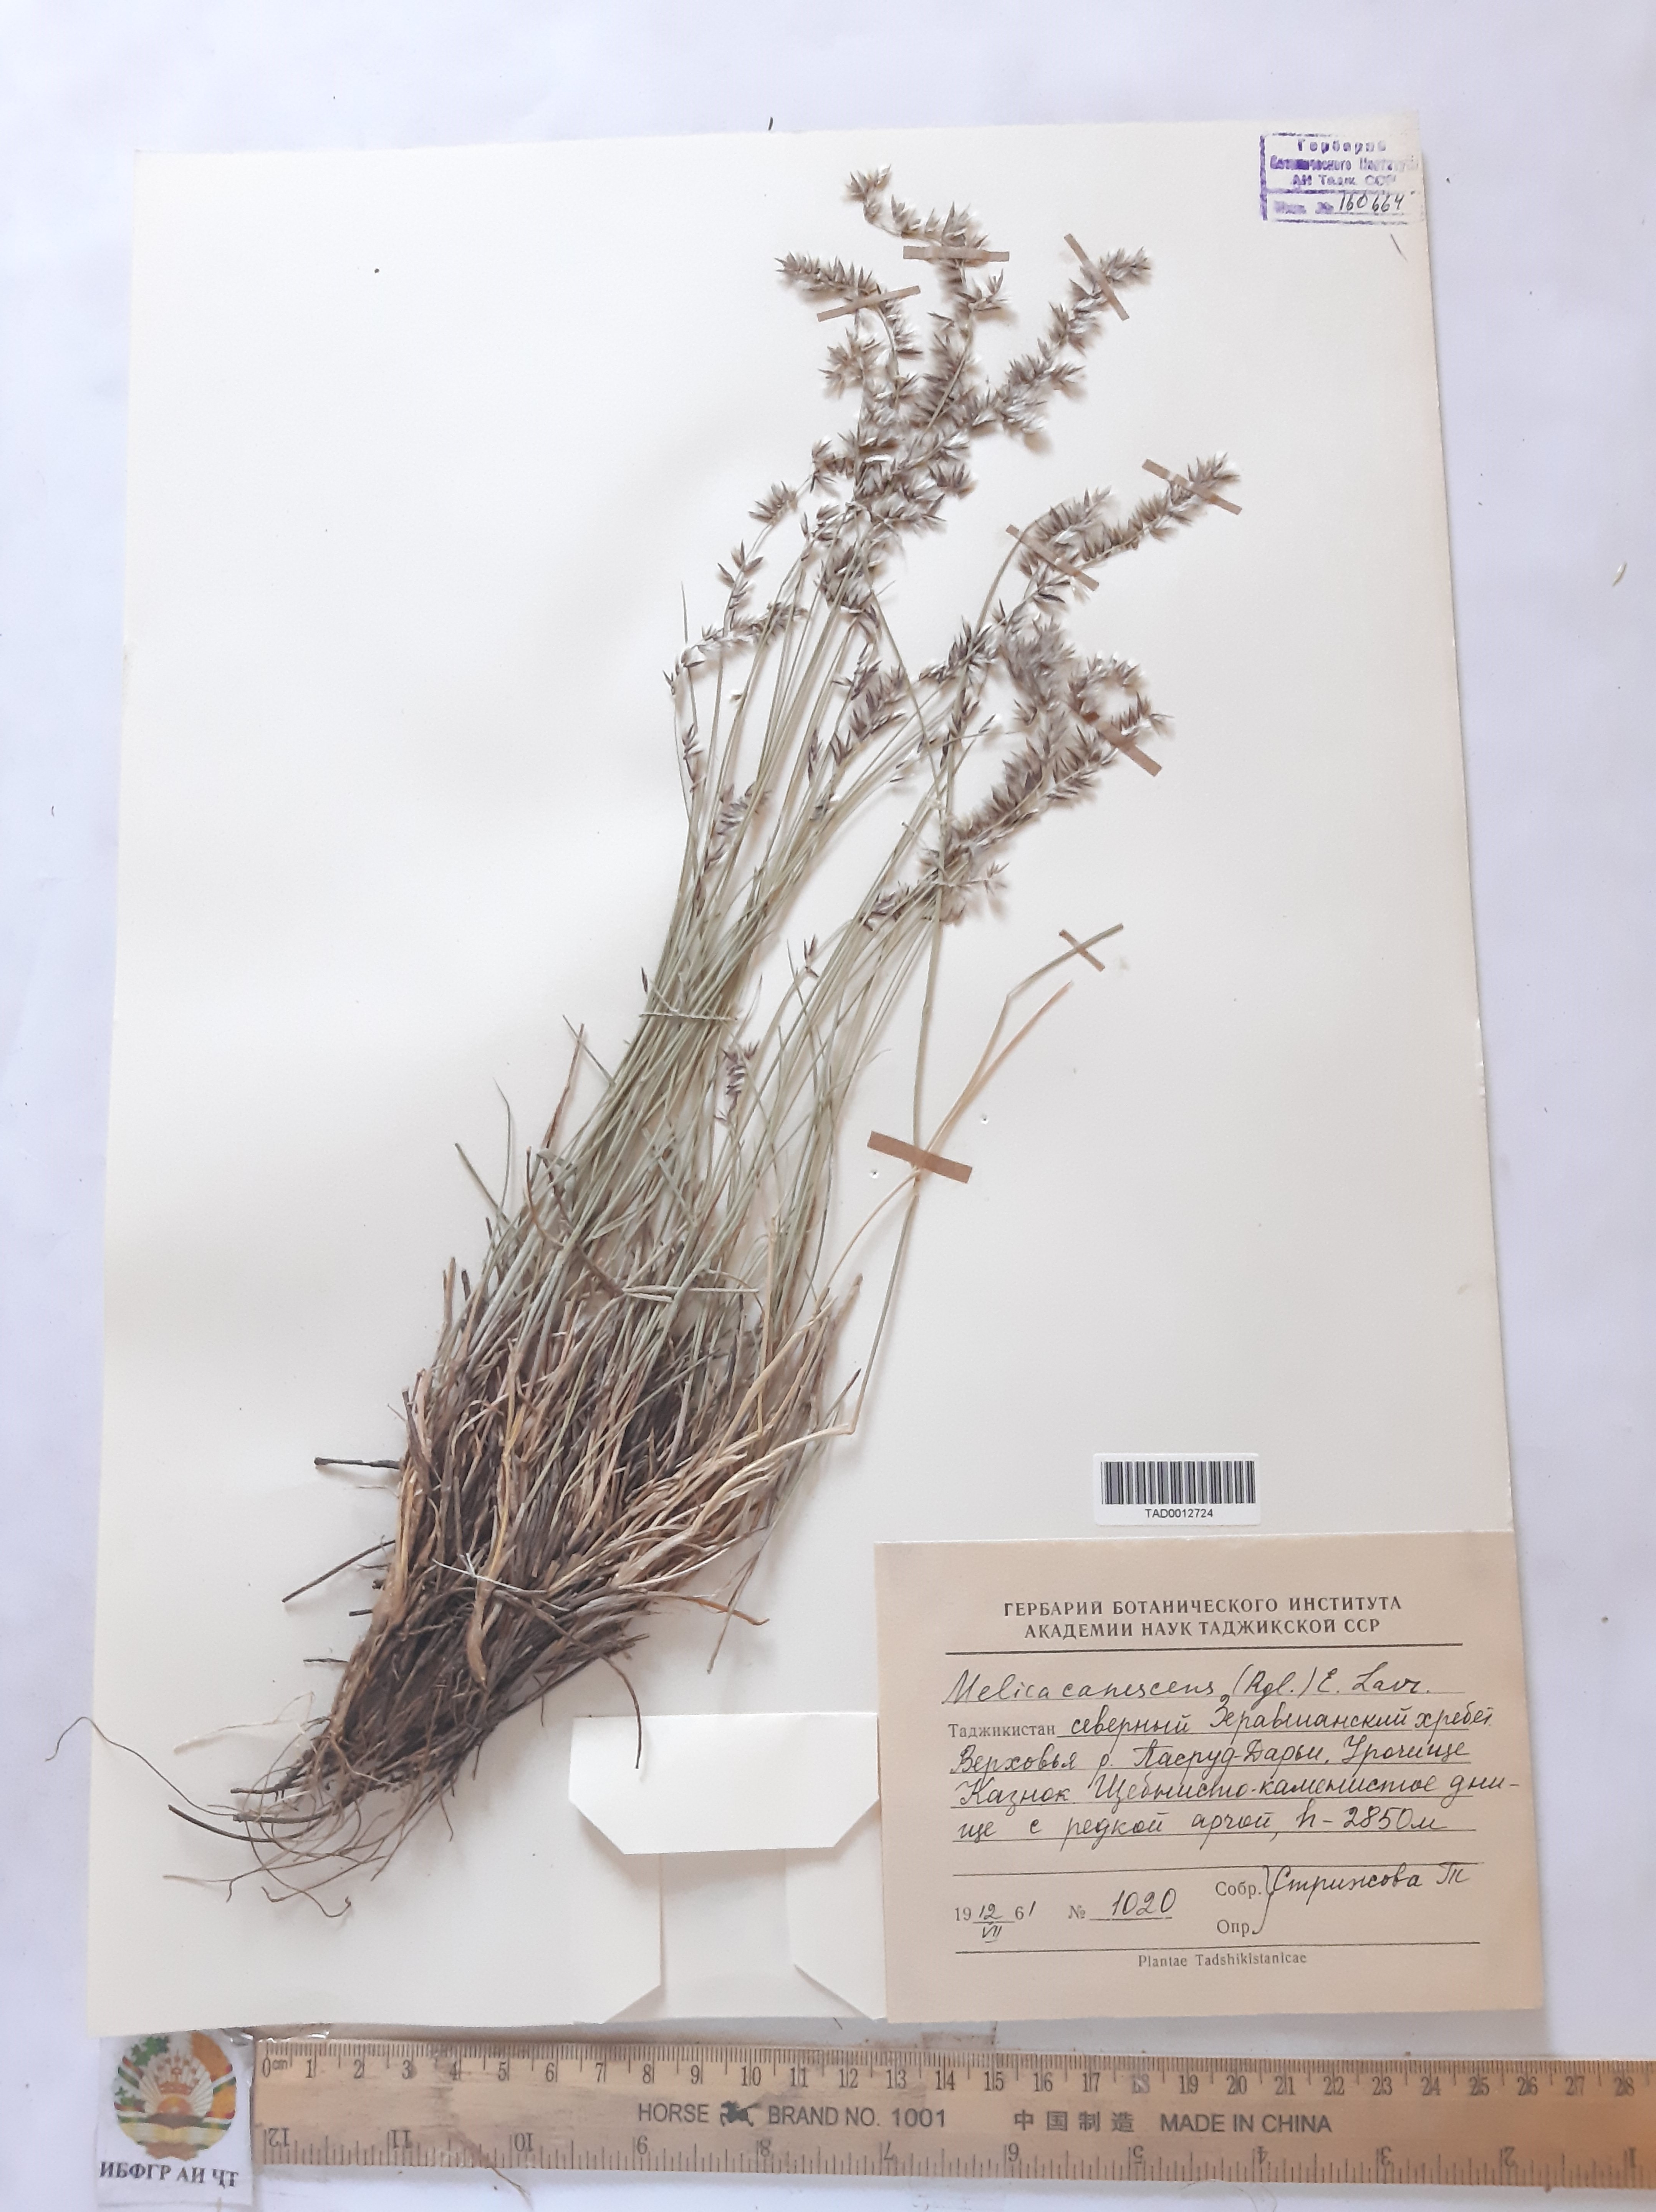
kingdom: Plantae
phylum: Tracheophyta
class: Liliopsida
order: Poales
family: Poaceae
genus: Melica
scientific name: Melica persica
